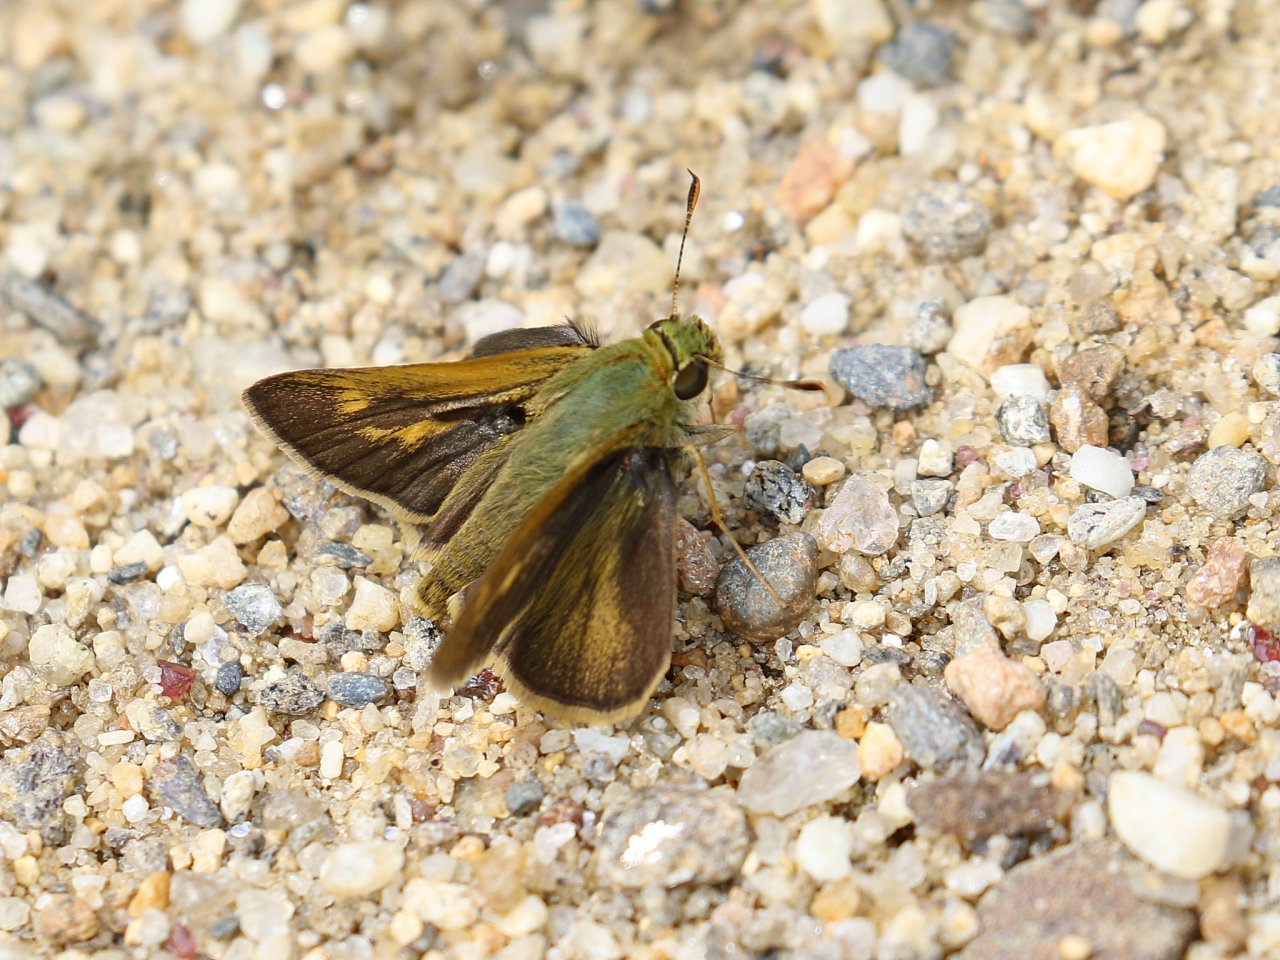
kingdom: Animalia
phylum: Arthropoda
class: Insecta
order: Lepidoptera
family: Hesperiidae
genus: Polites
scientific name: Polites
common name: Crossline Skipper
